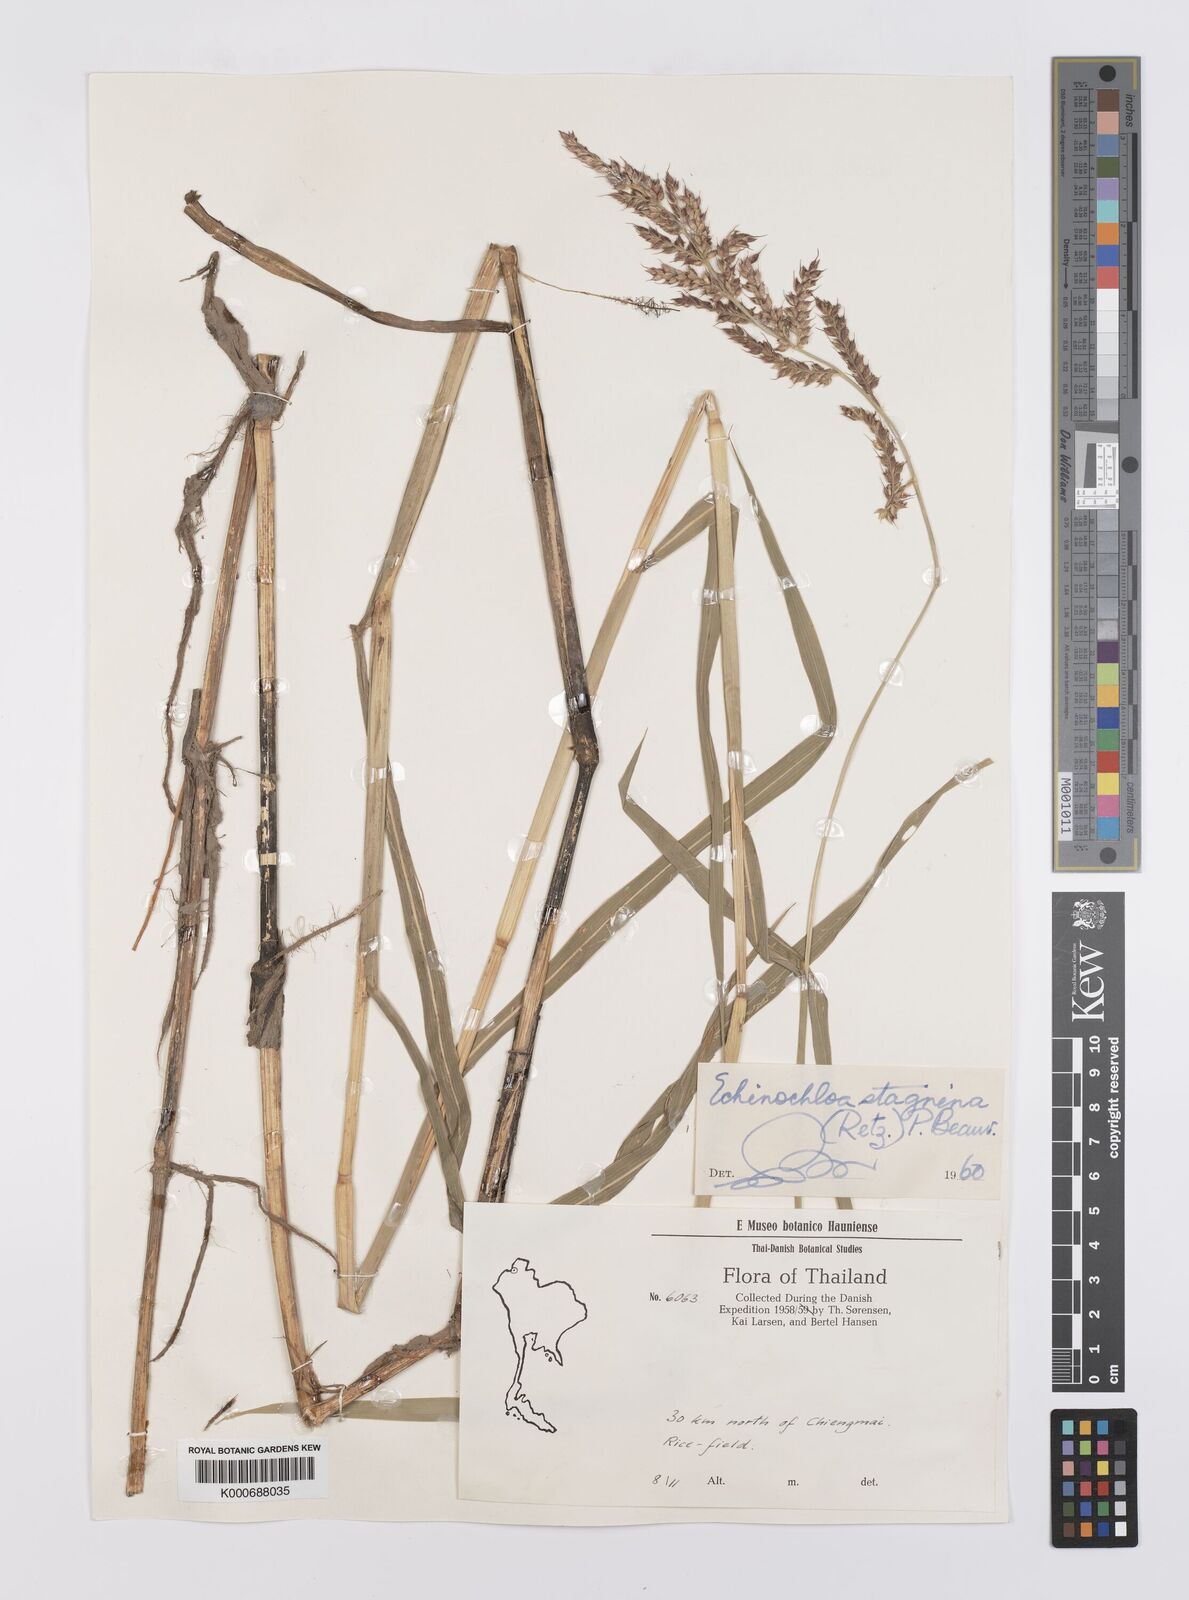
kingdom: Plantae
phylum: Tracheophyta
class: Liliopsida
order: Poales
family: Poaceae
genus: Echinochloa
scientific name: Echinochloa picta
